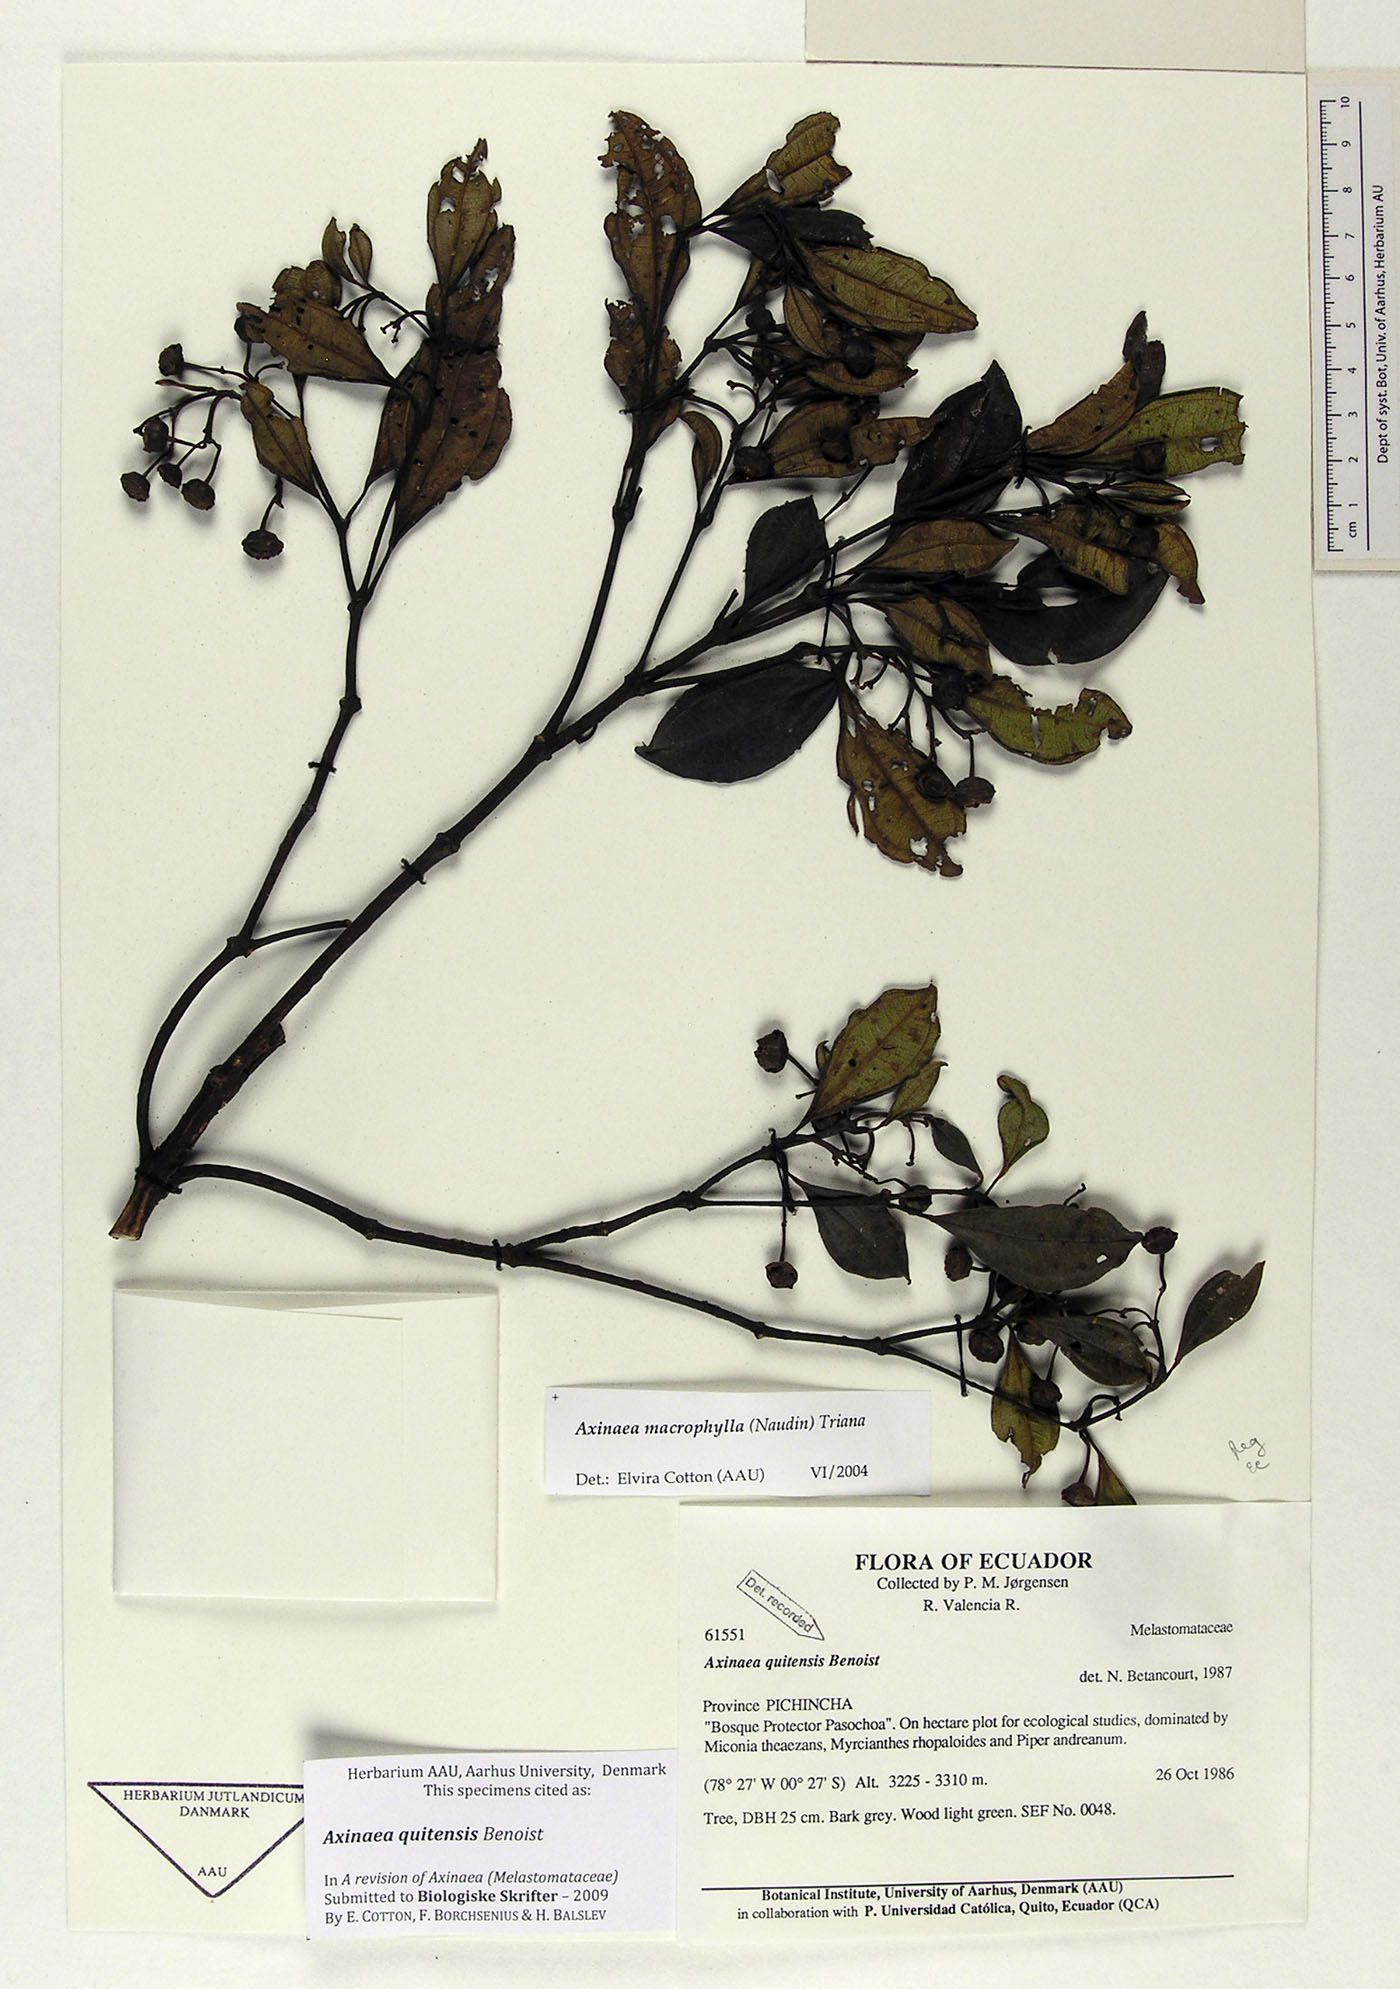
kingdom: Plantae
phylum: Tracheophyta
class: Magnoliopsida
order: Myrtales
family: Melastomataceae
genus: Axinaea
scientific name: Axinaea quitensis
